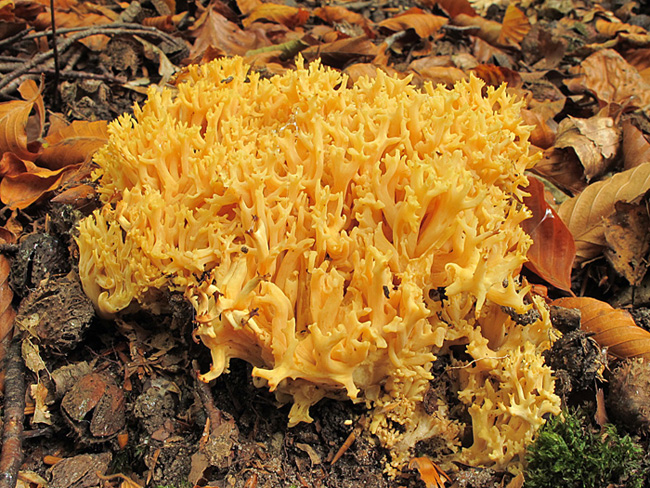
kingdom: Fungi
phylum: Basidiomycota
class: Agaricomycetes
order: Gomphales
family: Gomphaceae
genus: Ramaria
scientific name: Ramaria flavescens
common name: stor koralsvamp
